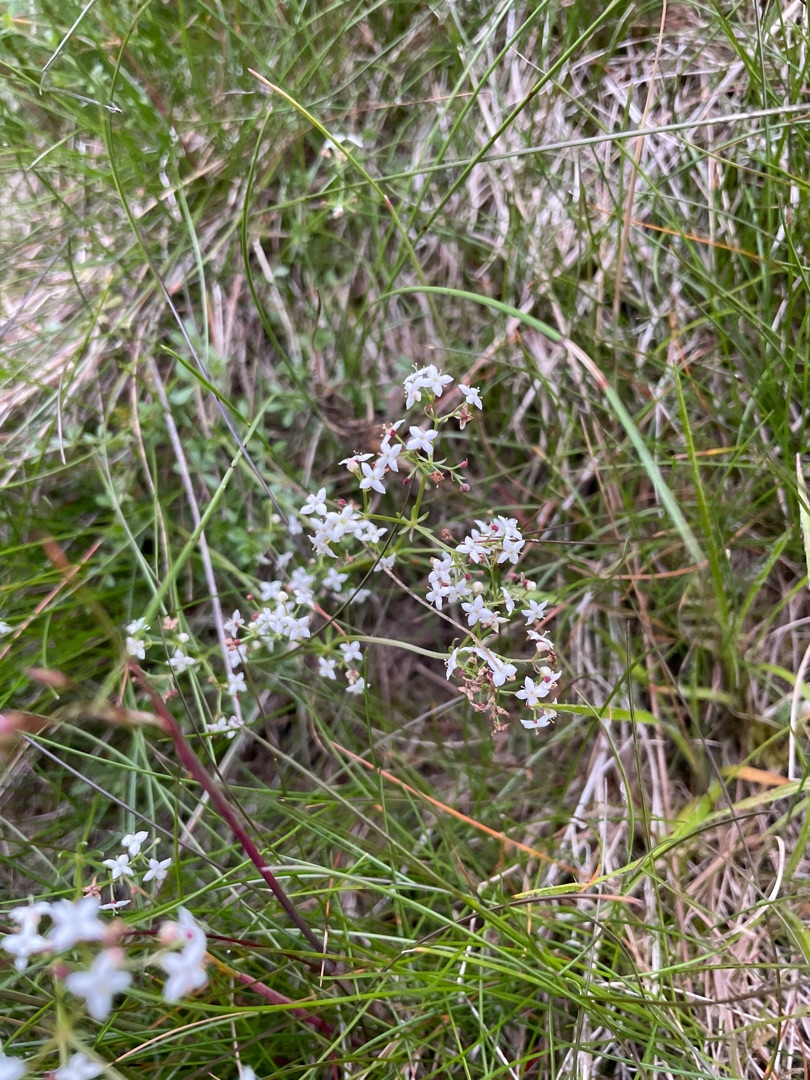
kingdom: Plantae
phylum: Tracheophyta
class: Magnoliopsida
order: Gentianales
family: Rubiaceae
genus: Galium
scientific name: Galium saxatile
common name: Lyng-snerre
